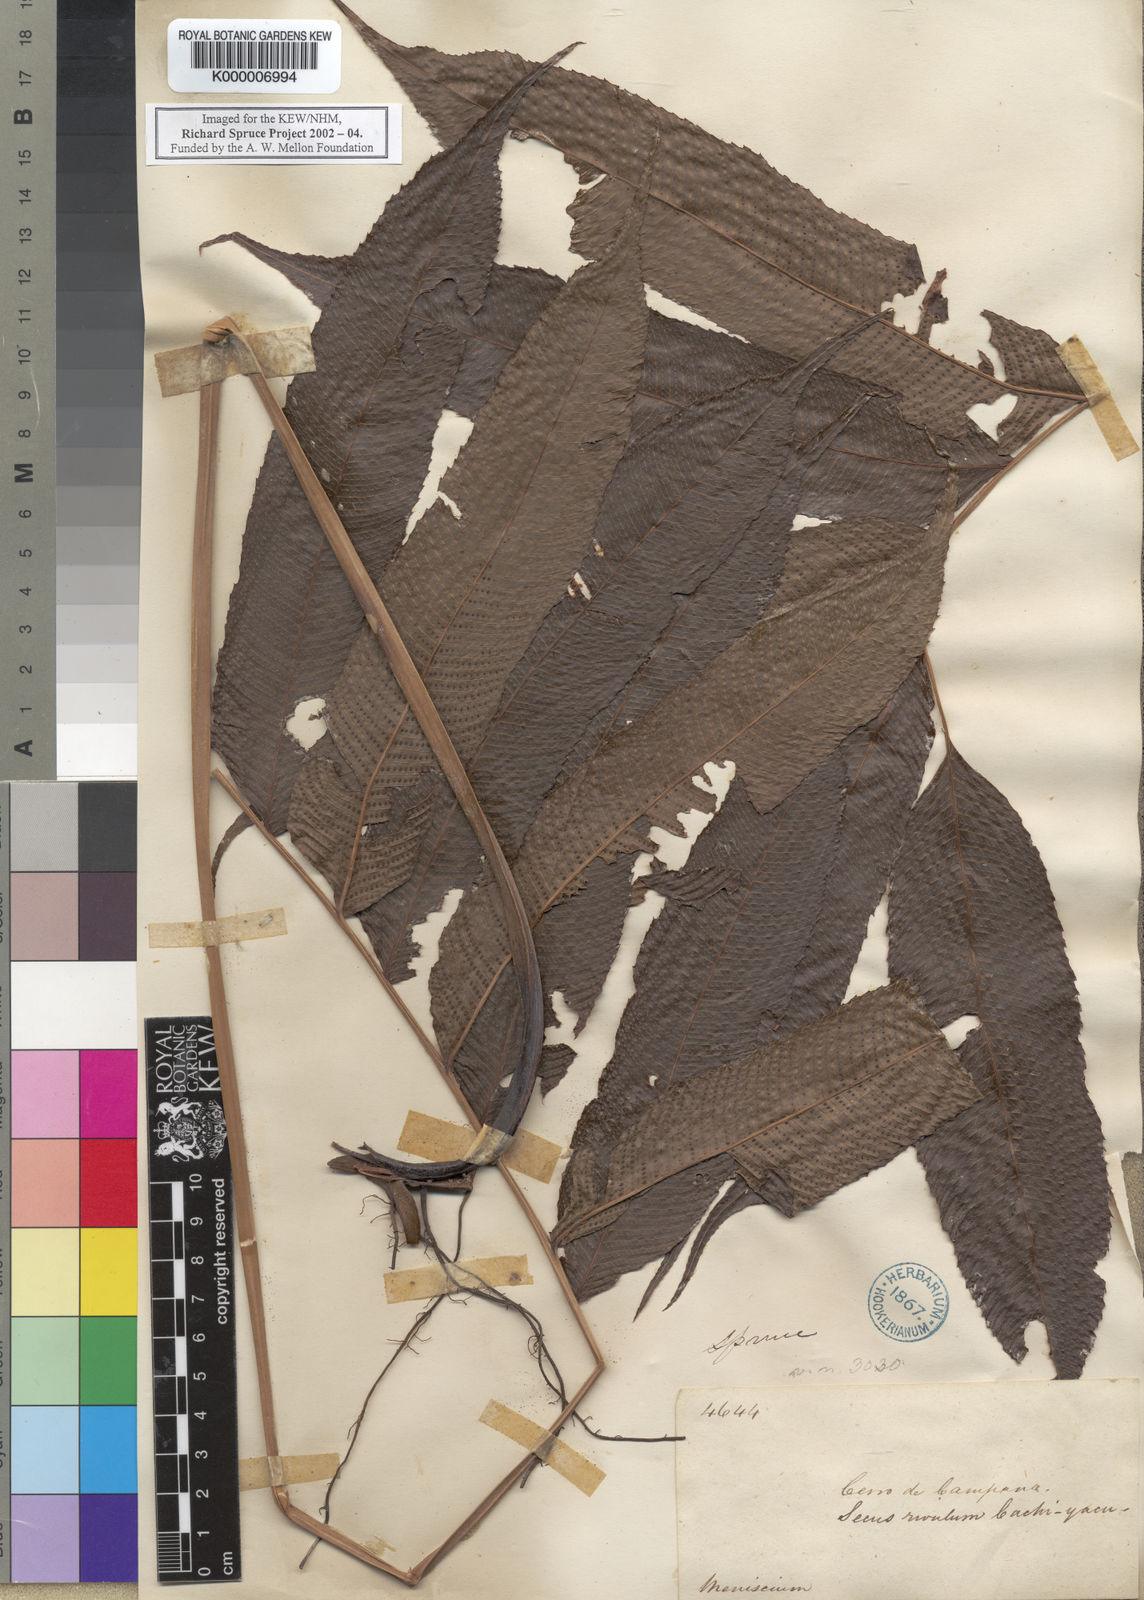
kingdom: Plantae
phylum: Tracheophyta
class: Polypodiopsida
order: Polypodiales
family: Thelypteridaceae
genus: Meniscium
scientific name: Meniscium serratum
